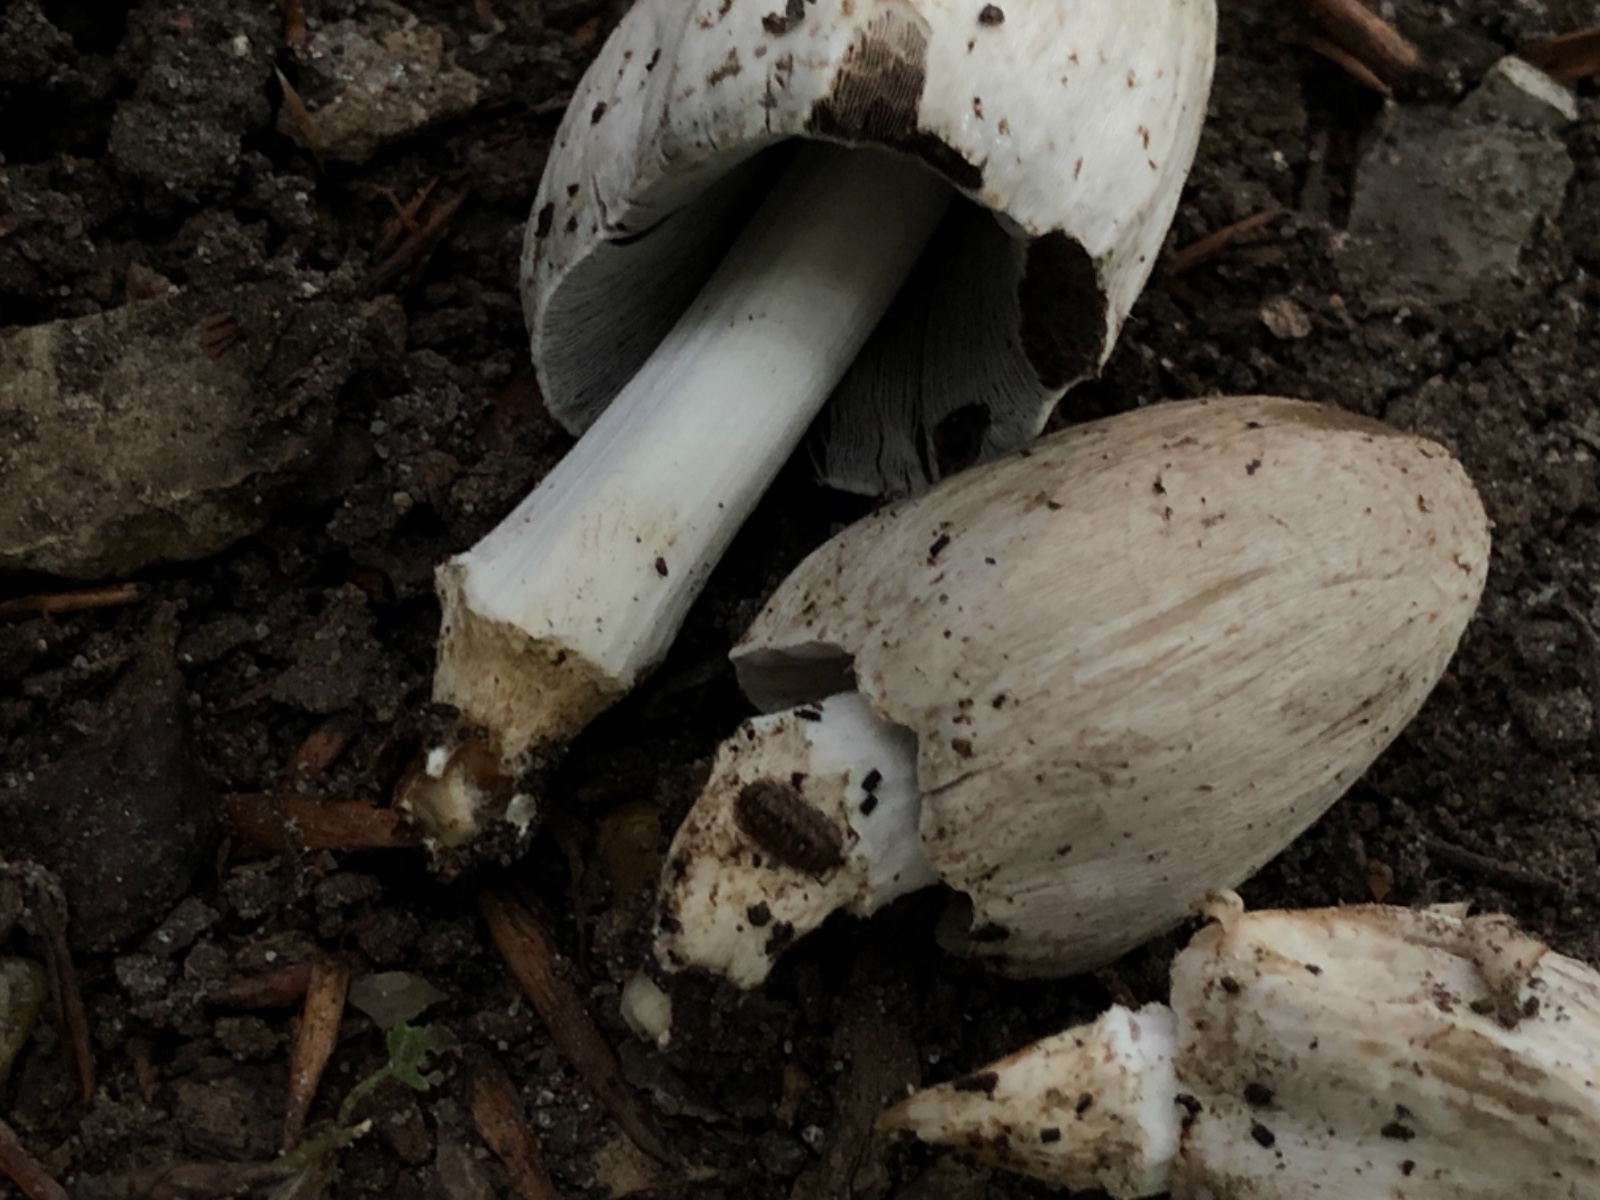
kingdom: Fungi
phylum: Basidiomycota
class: Agaricomycetes
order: Agaricales
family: Psathyrellaceae
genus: Coprinopsis
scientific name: Coprinopsis romagnesiana
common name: brunskællet blækhat
